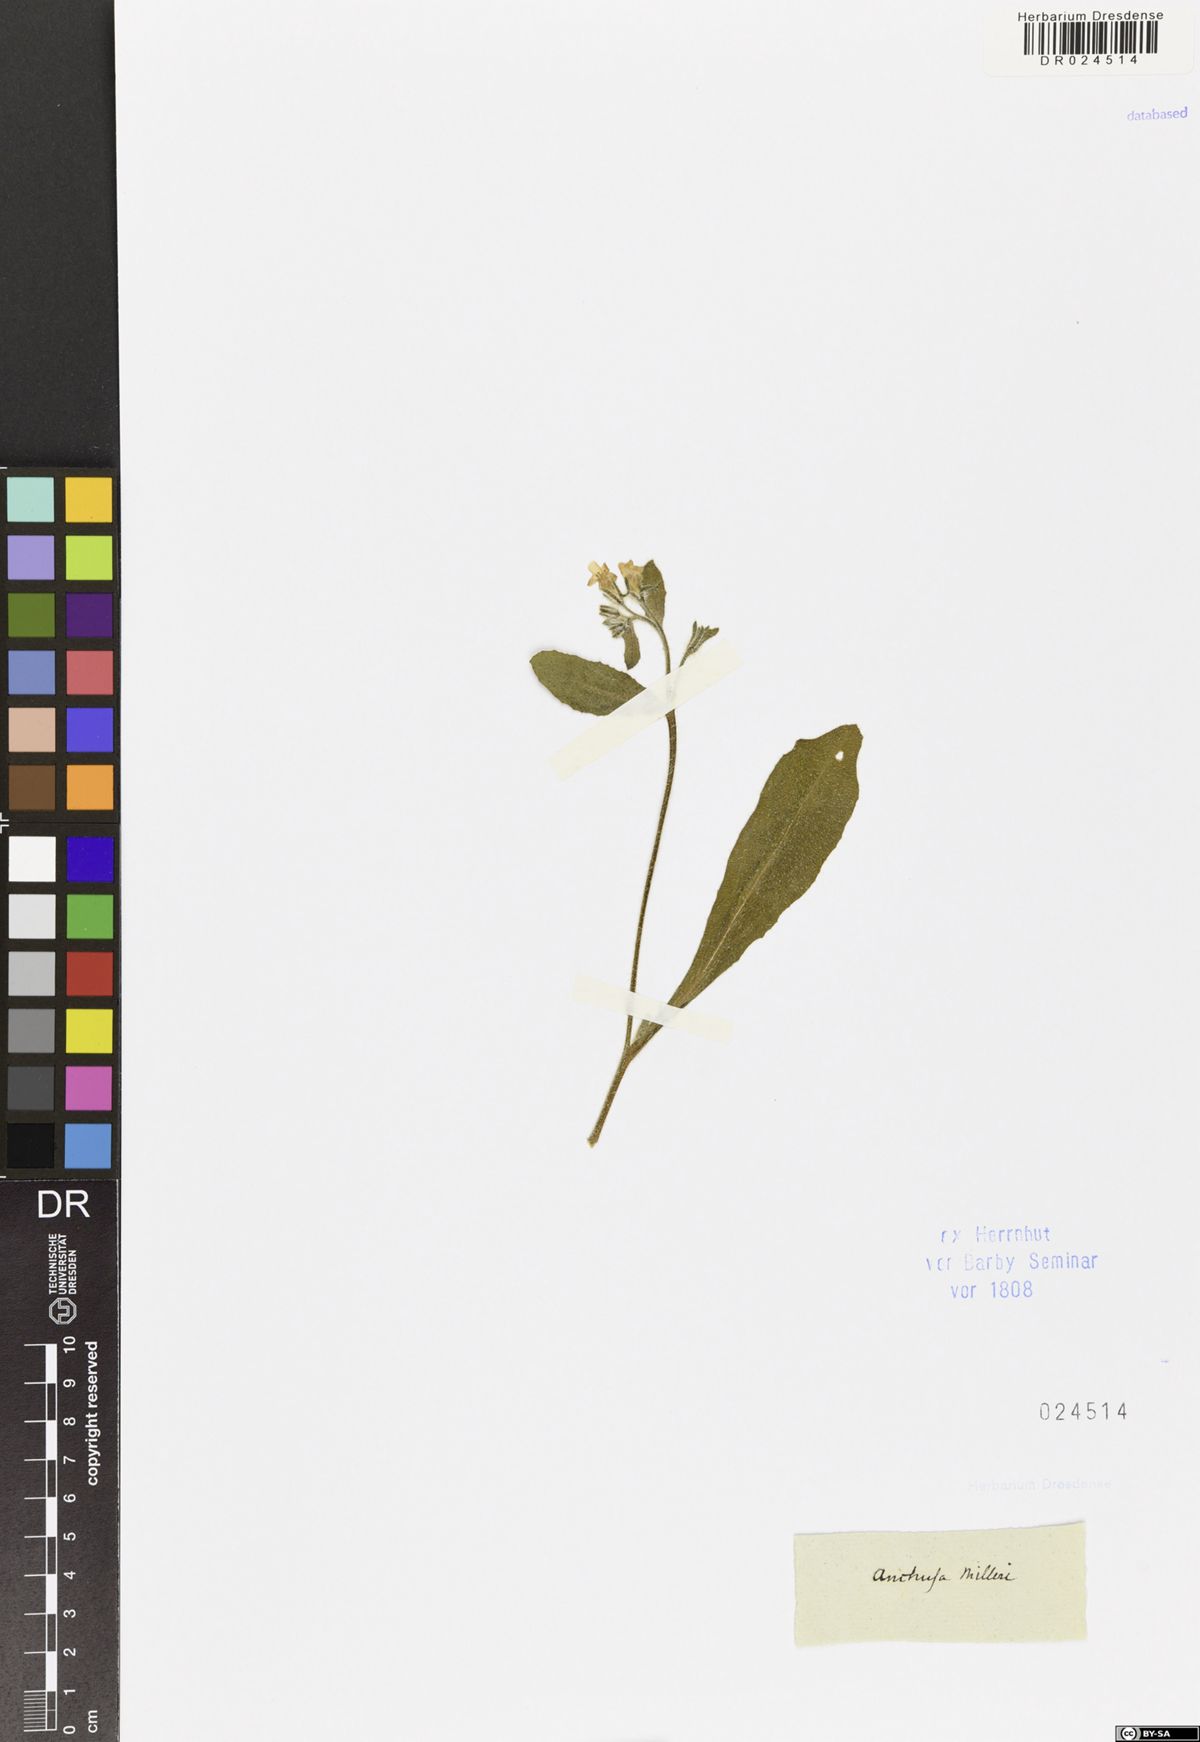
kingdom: Plantae
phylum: Tracheophyta
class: Magnoliopsida
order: Boraginales
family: Boraginaceae
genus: Anchusa
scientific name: Anchusa milleri
